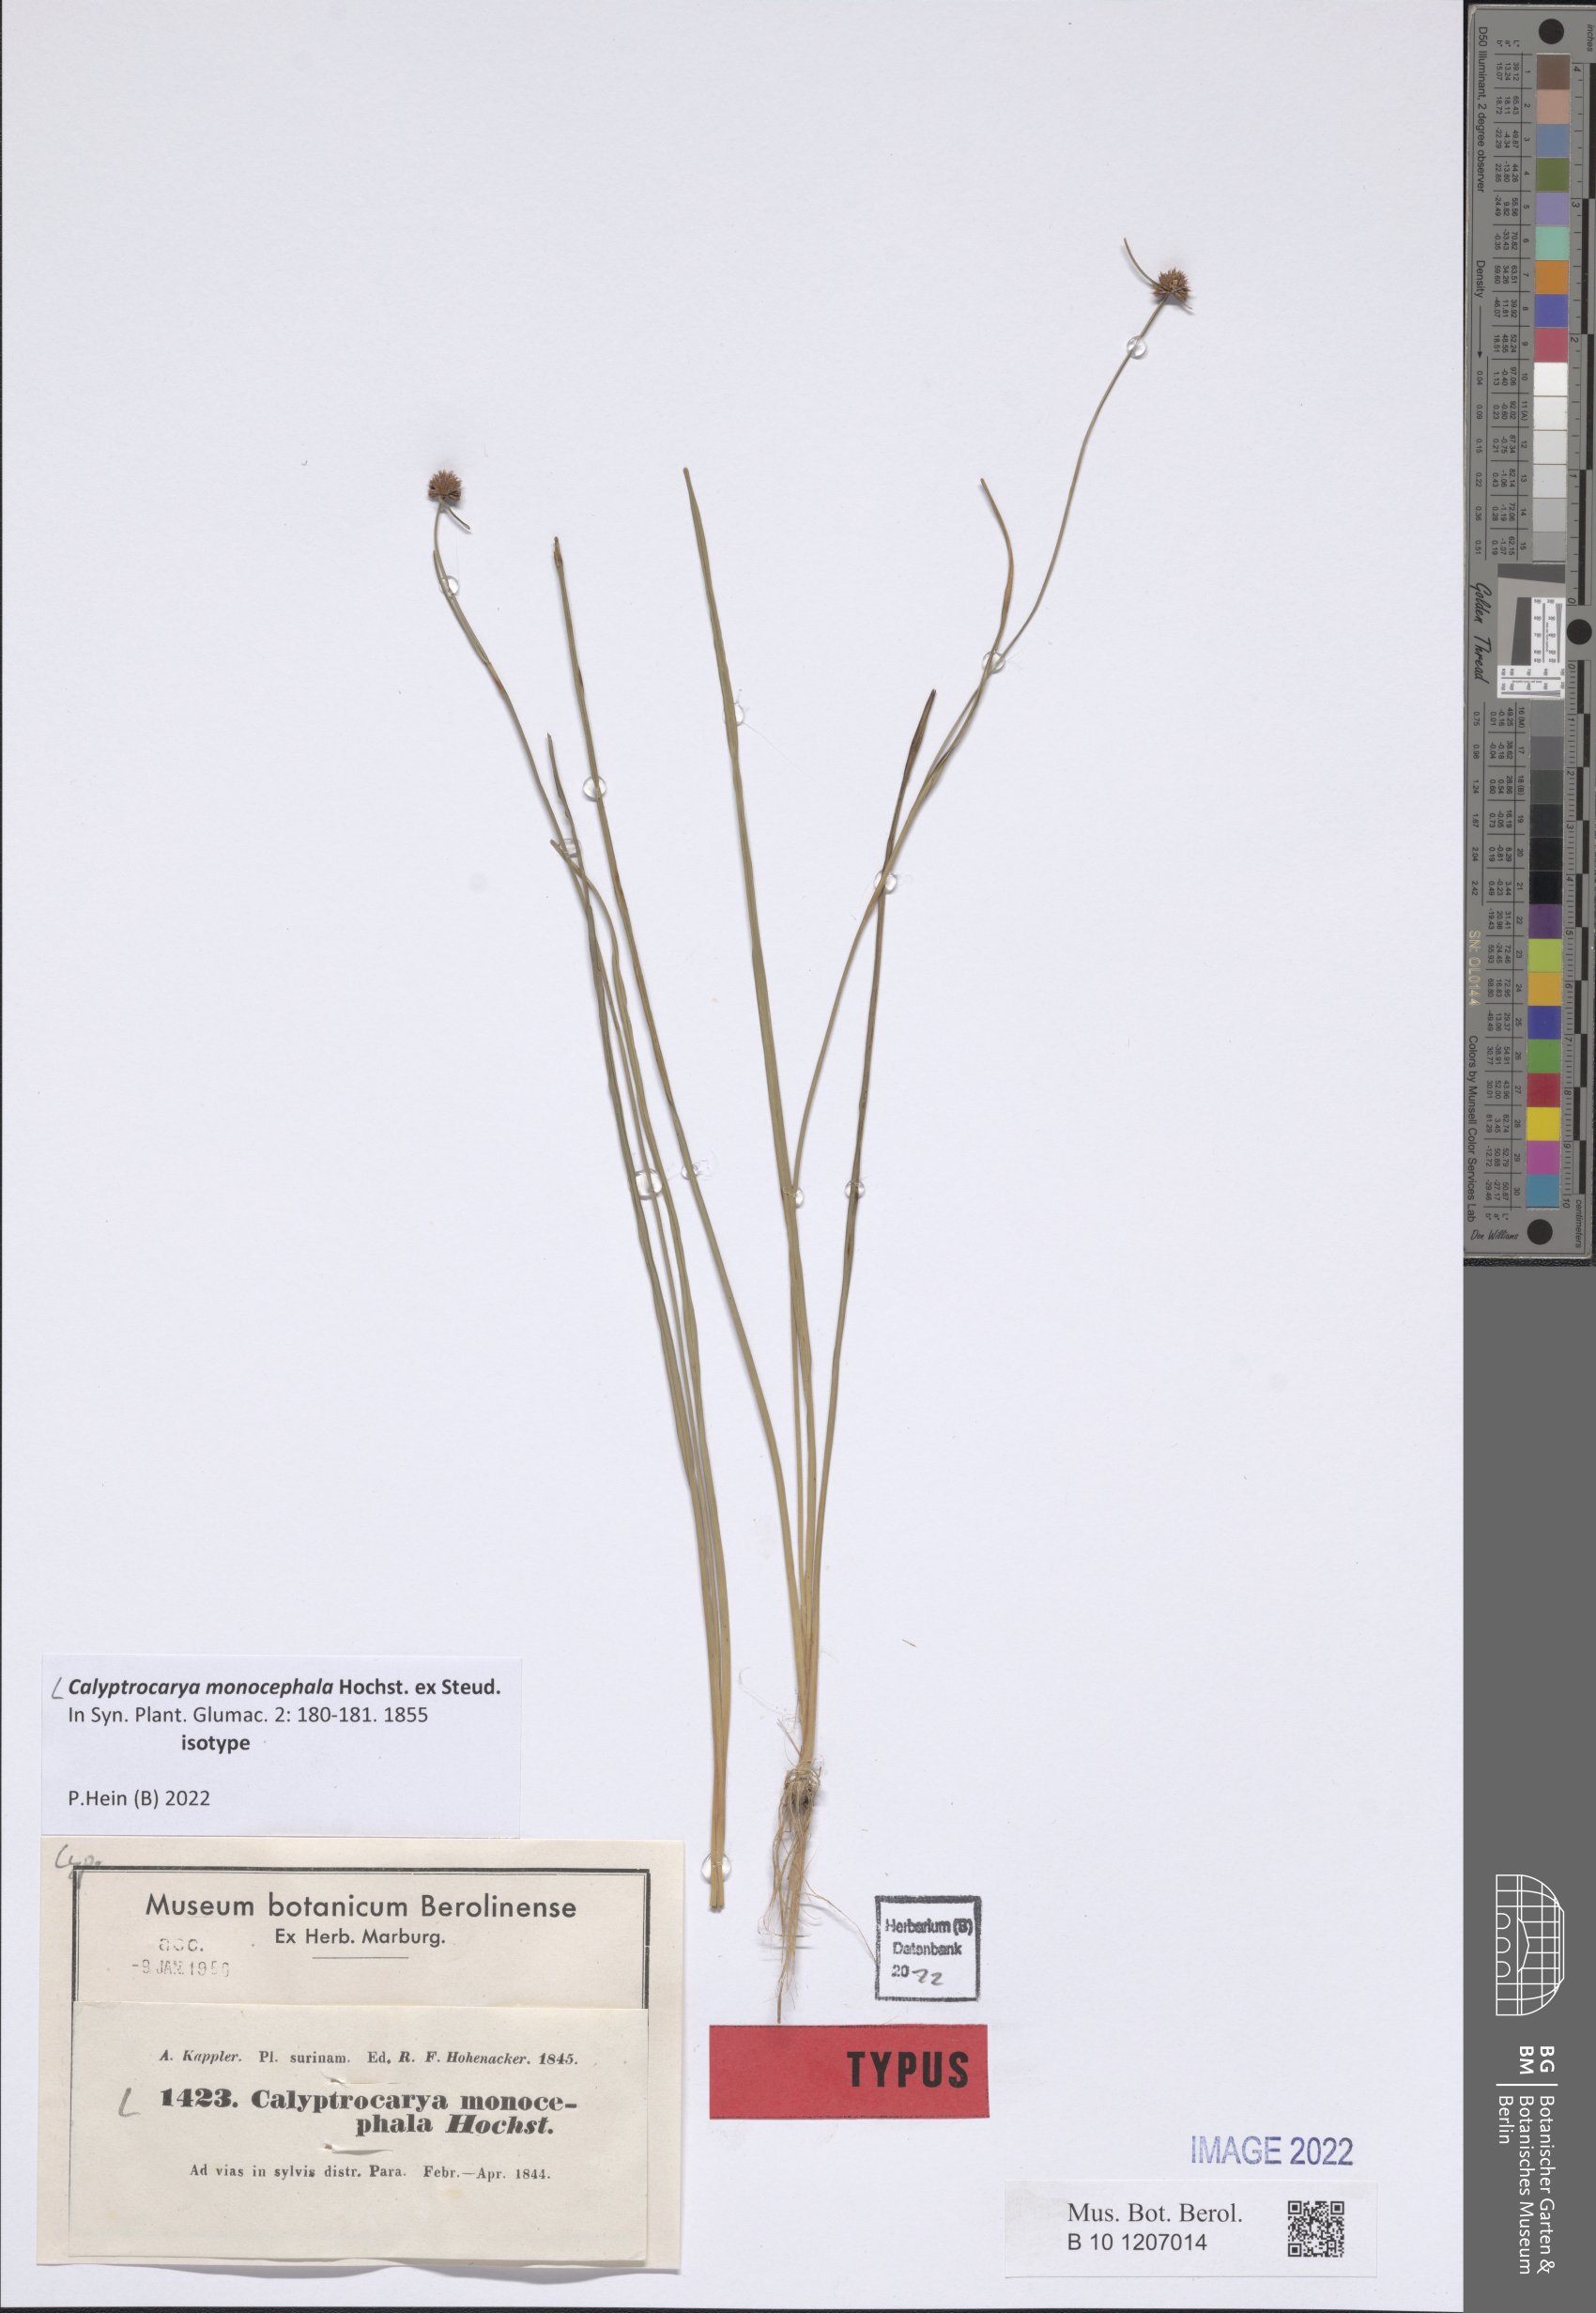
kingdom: Plantae
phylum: Tracheophyta
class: Liliopsida
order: Poales
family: Cyperaceae
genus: Calyptrocarya
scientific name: Calyptrocarya monocephala
